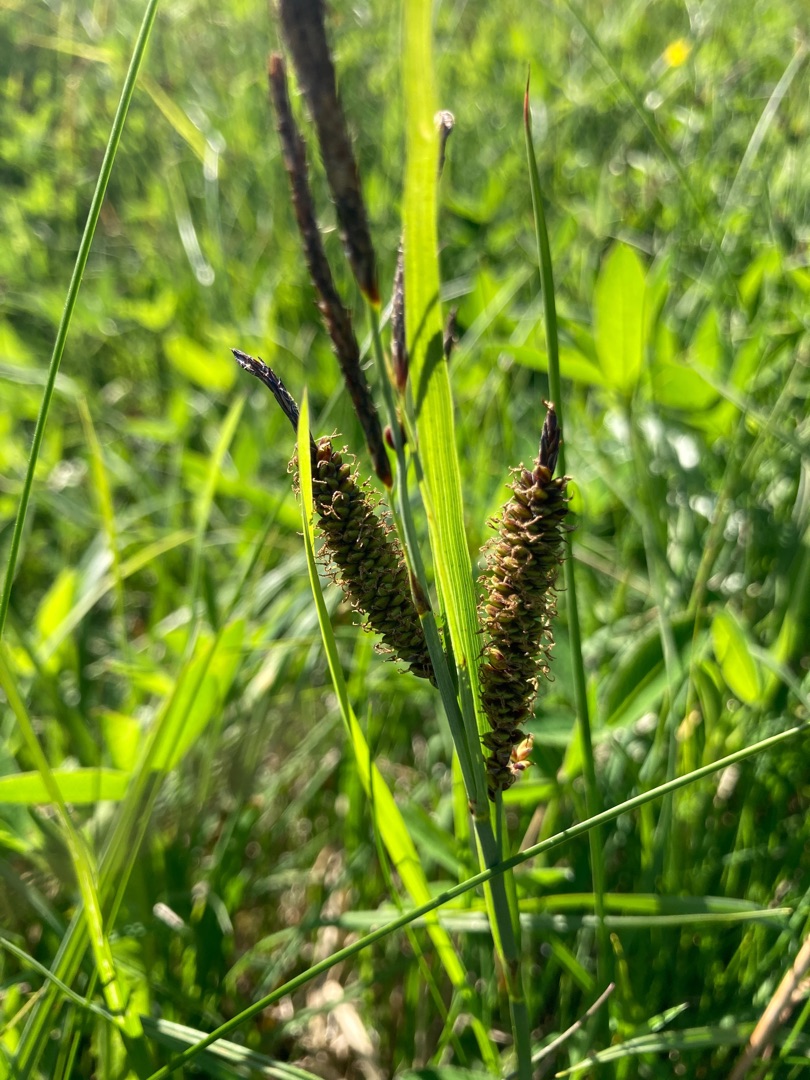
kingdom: Plantae
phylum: Tracheophyta
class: Liliopsida
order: Poales
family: Cyperaceae
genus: Carex
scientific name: Carex flacca
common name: Blågrøn star
